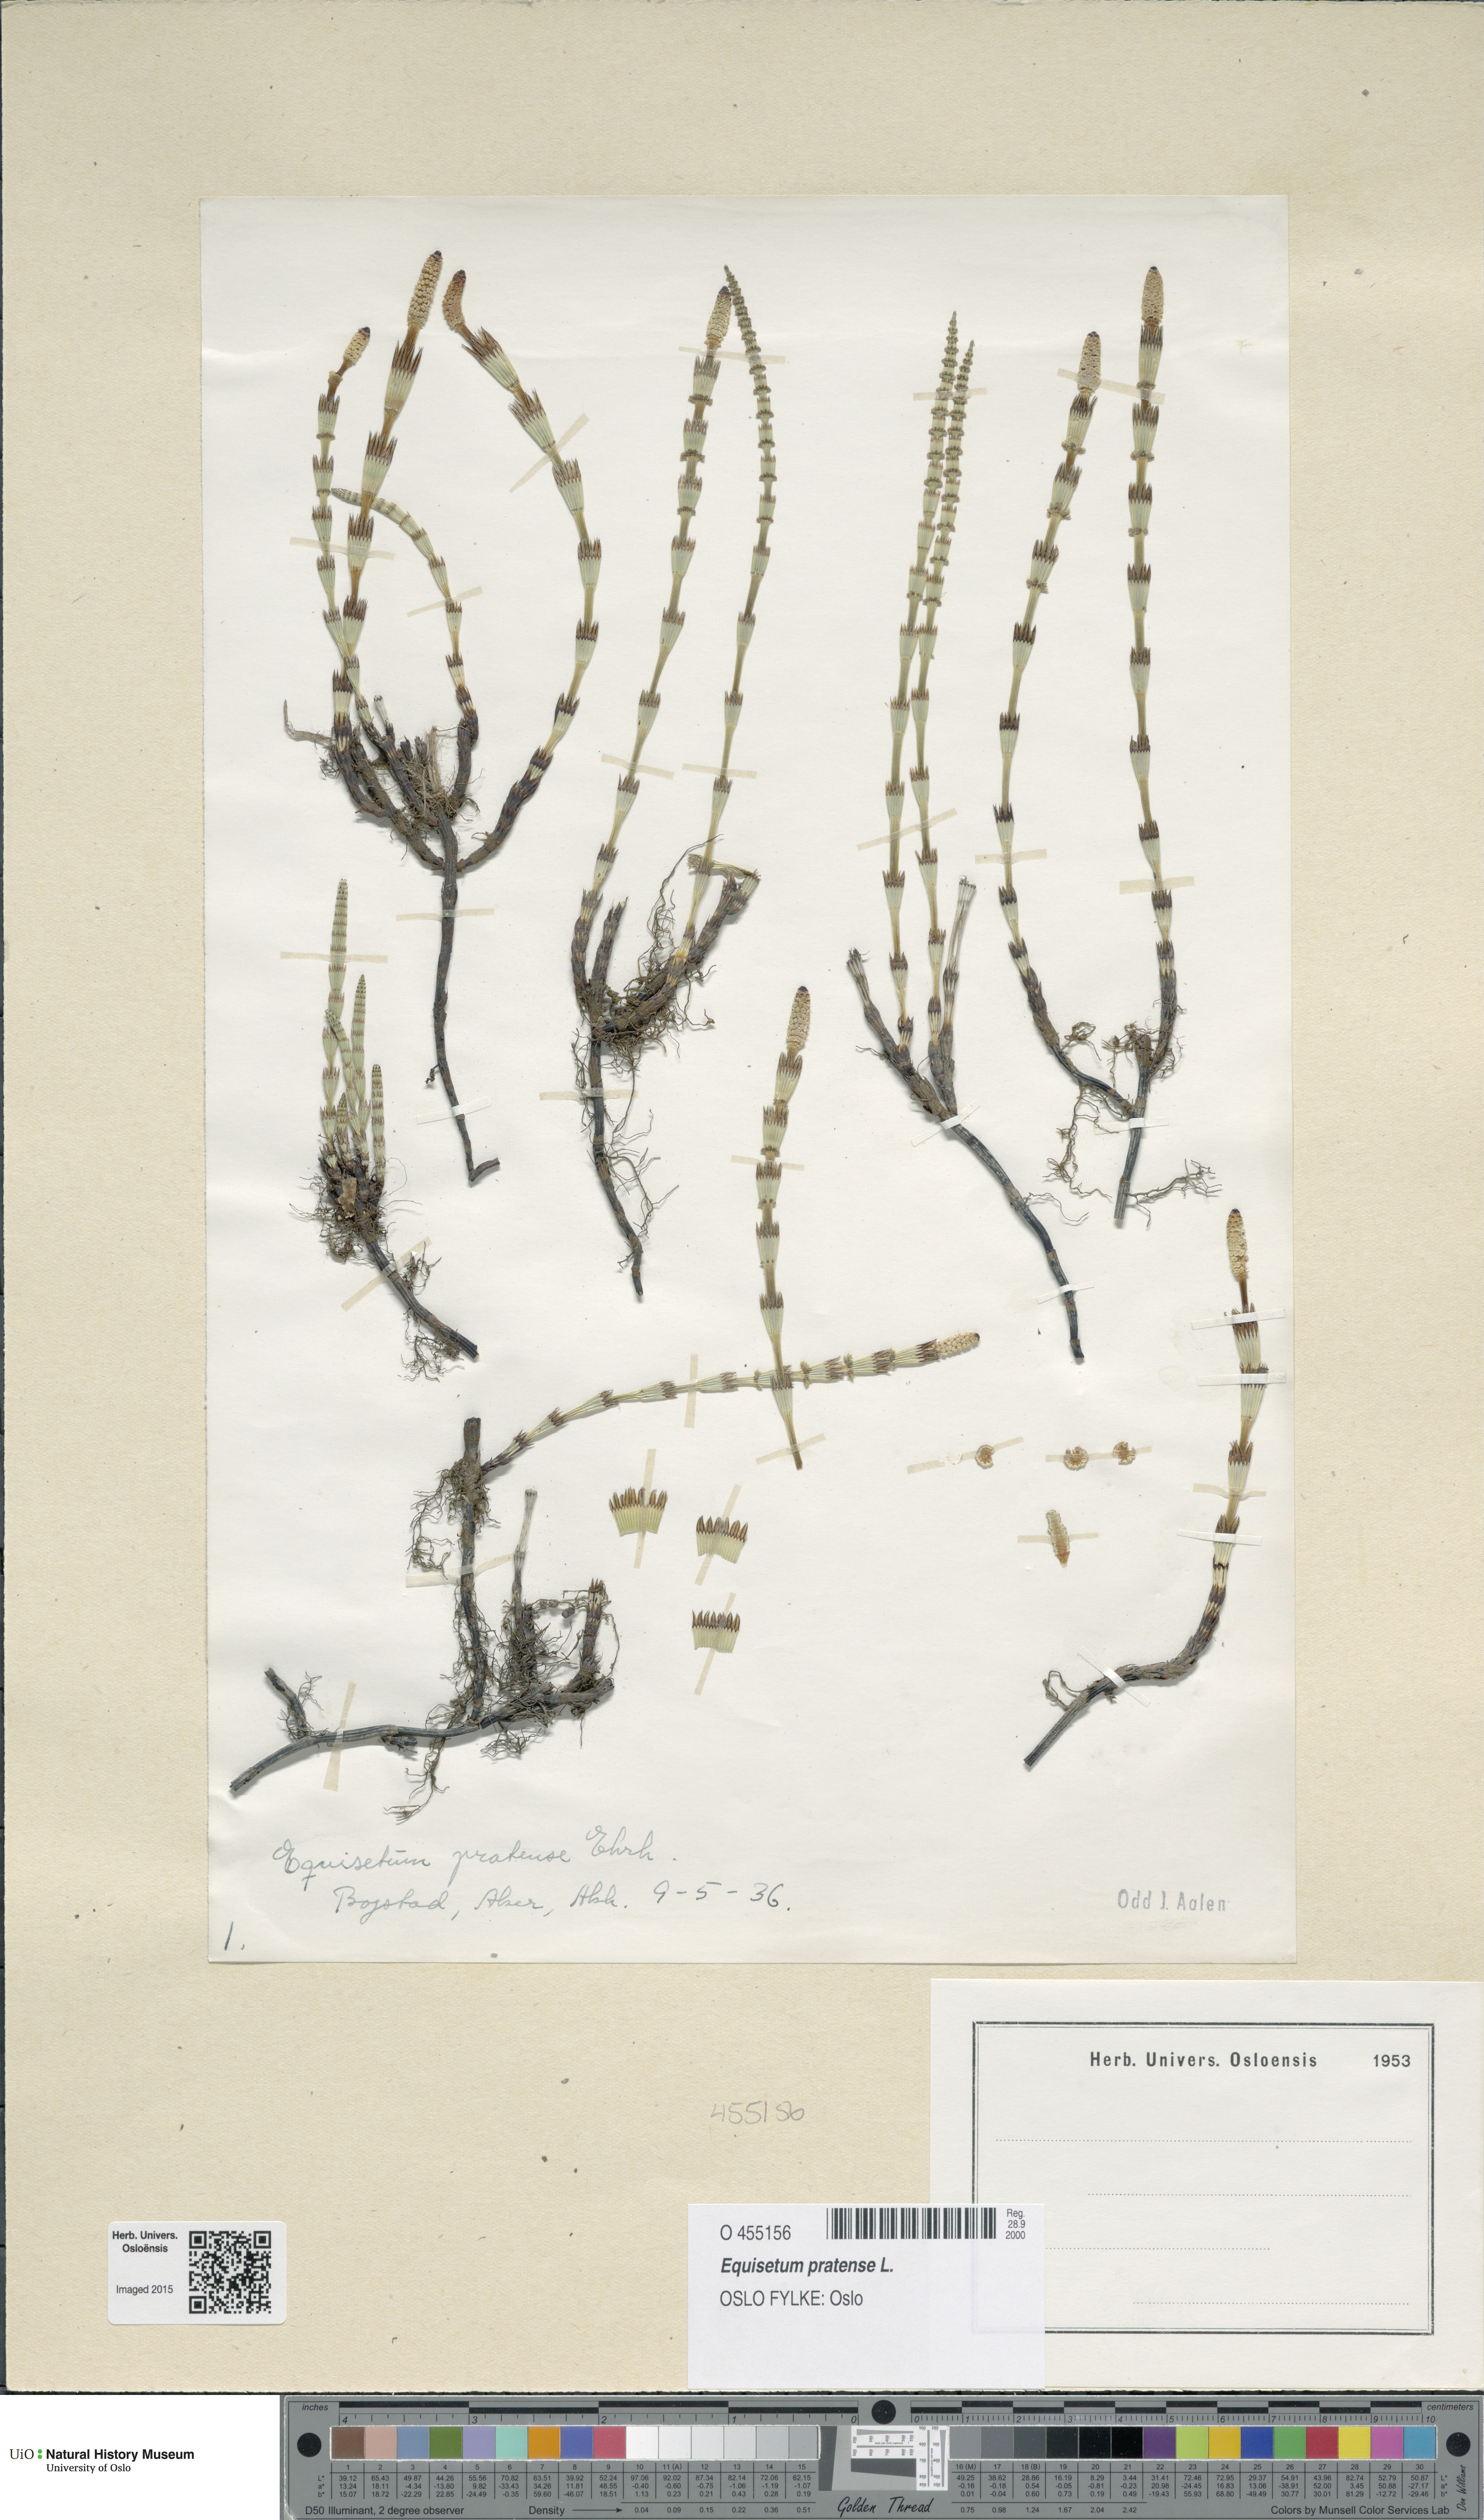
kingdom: Plantae
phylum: Tracheophyta
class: Polypodiopsida
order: Equisetales
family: Equisetaceae
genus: Equisetum
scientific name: Equisetum pratense
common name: Meadow horsetail
